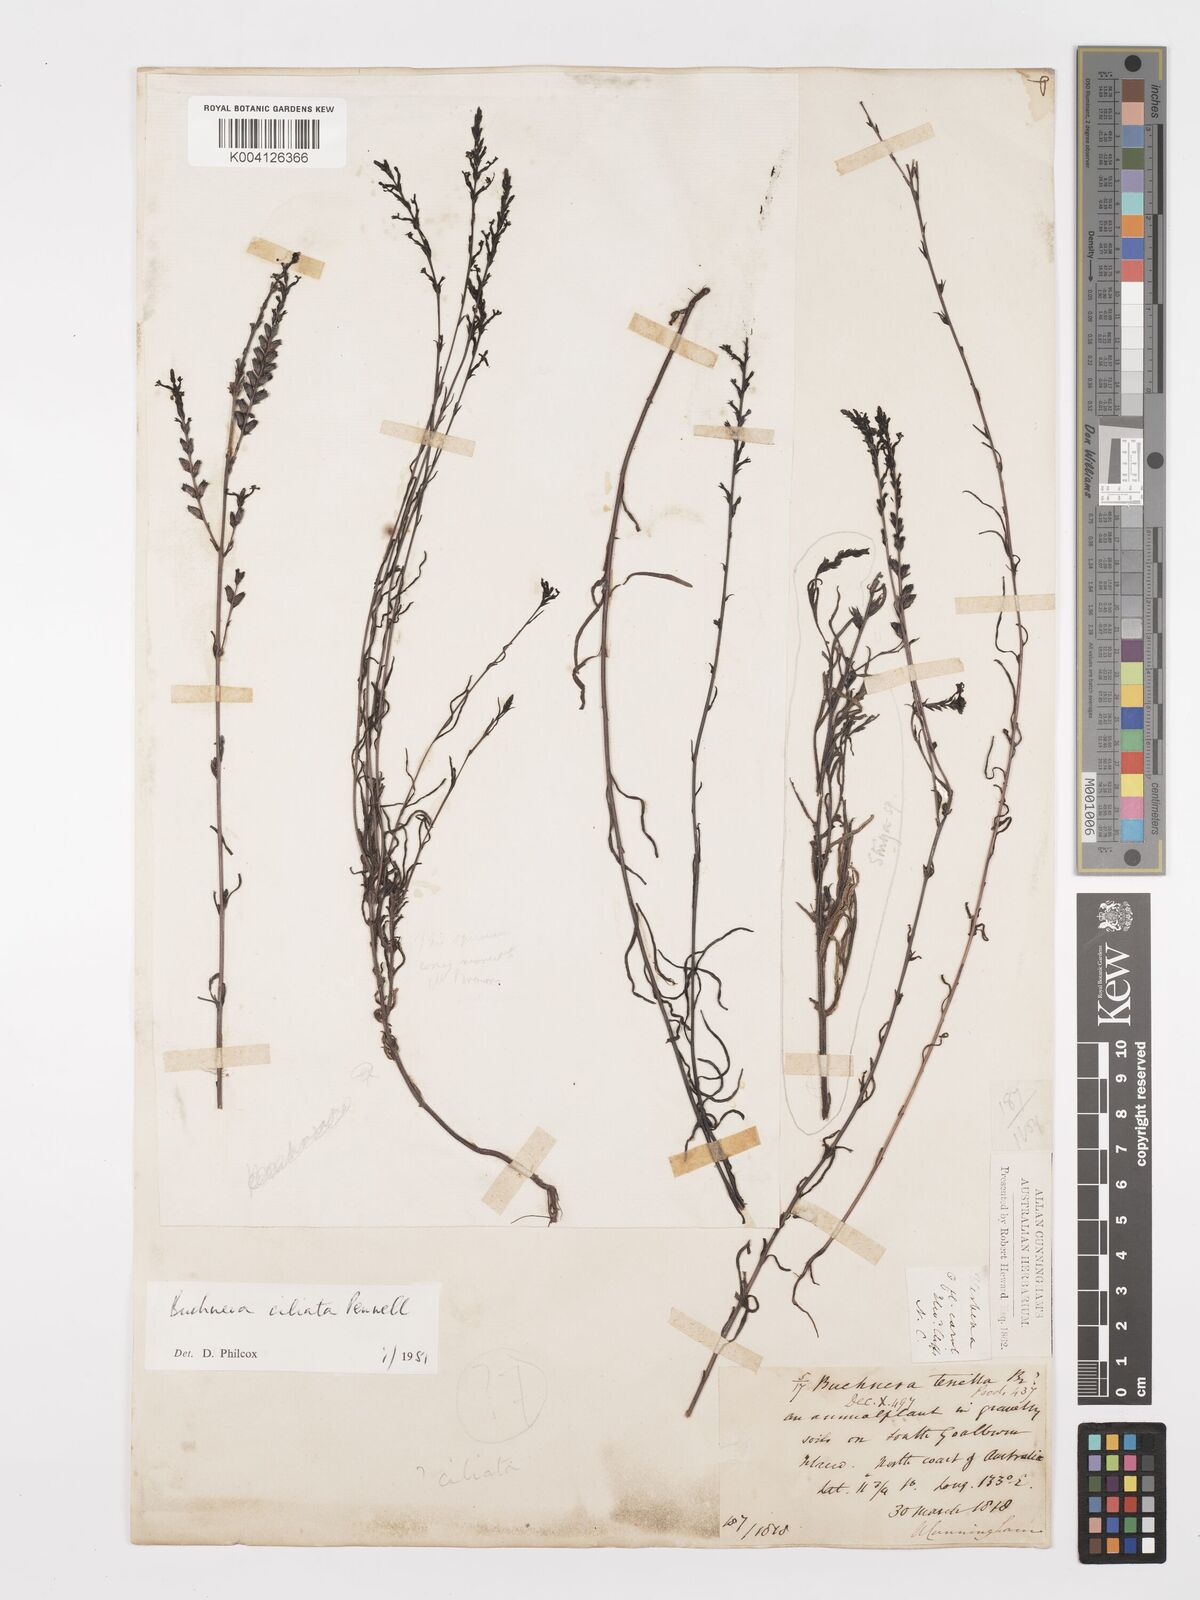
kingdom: Plantae
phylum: Tracheophyta
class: Magnoliopsida
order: Lamiales
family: Orobanchaceae
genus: Buchnera
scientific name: Buchnera gracilis
